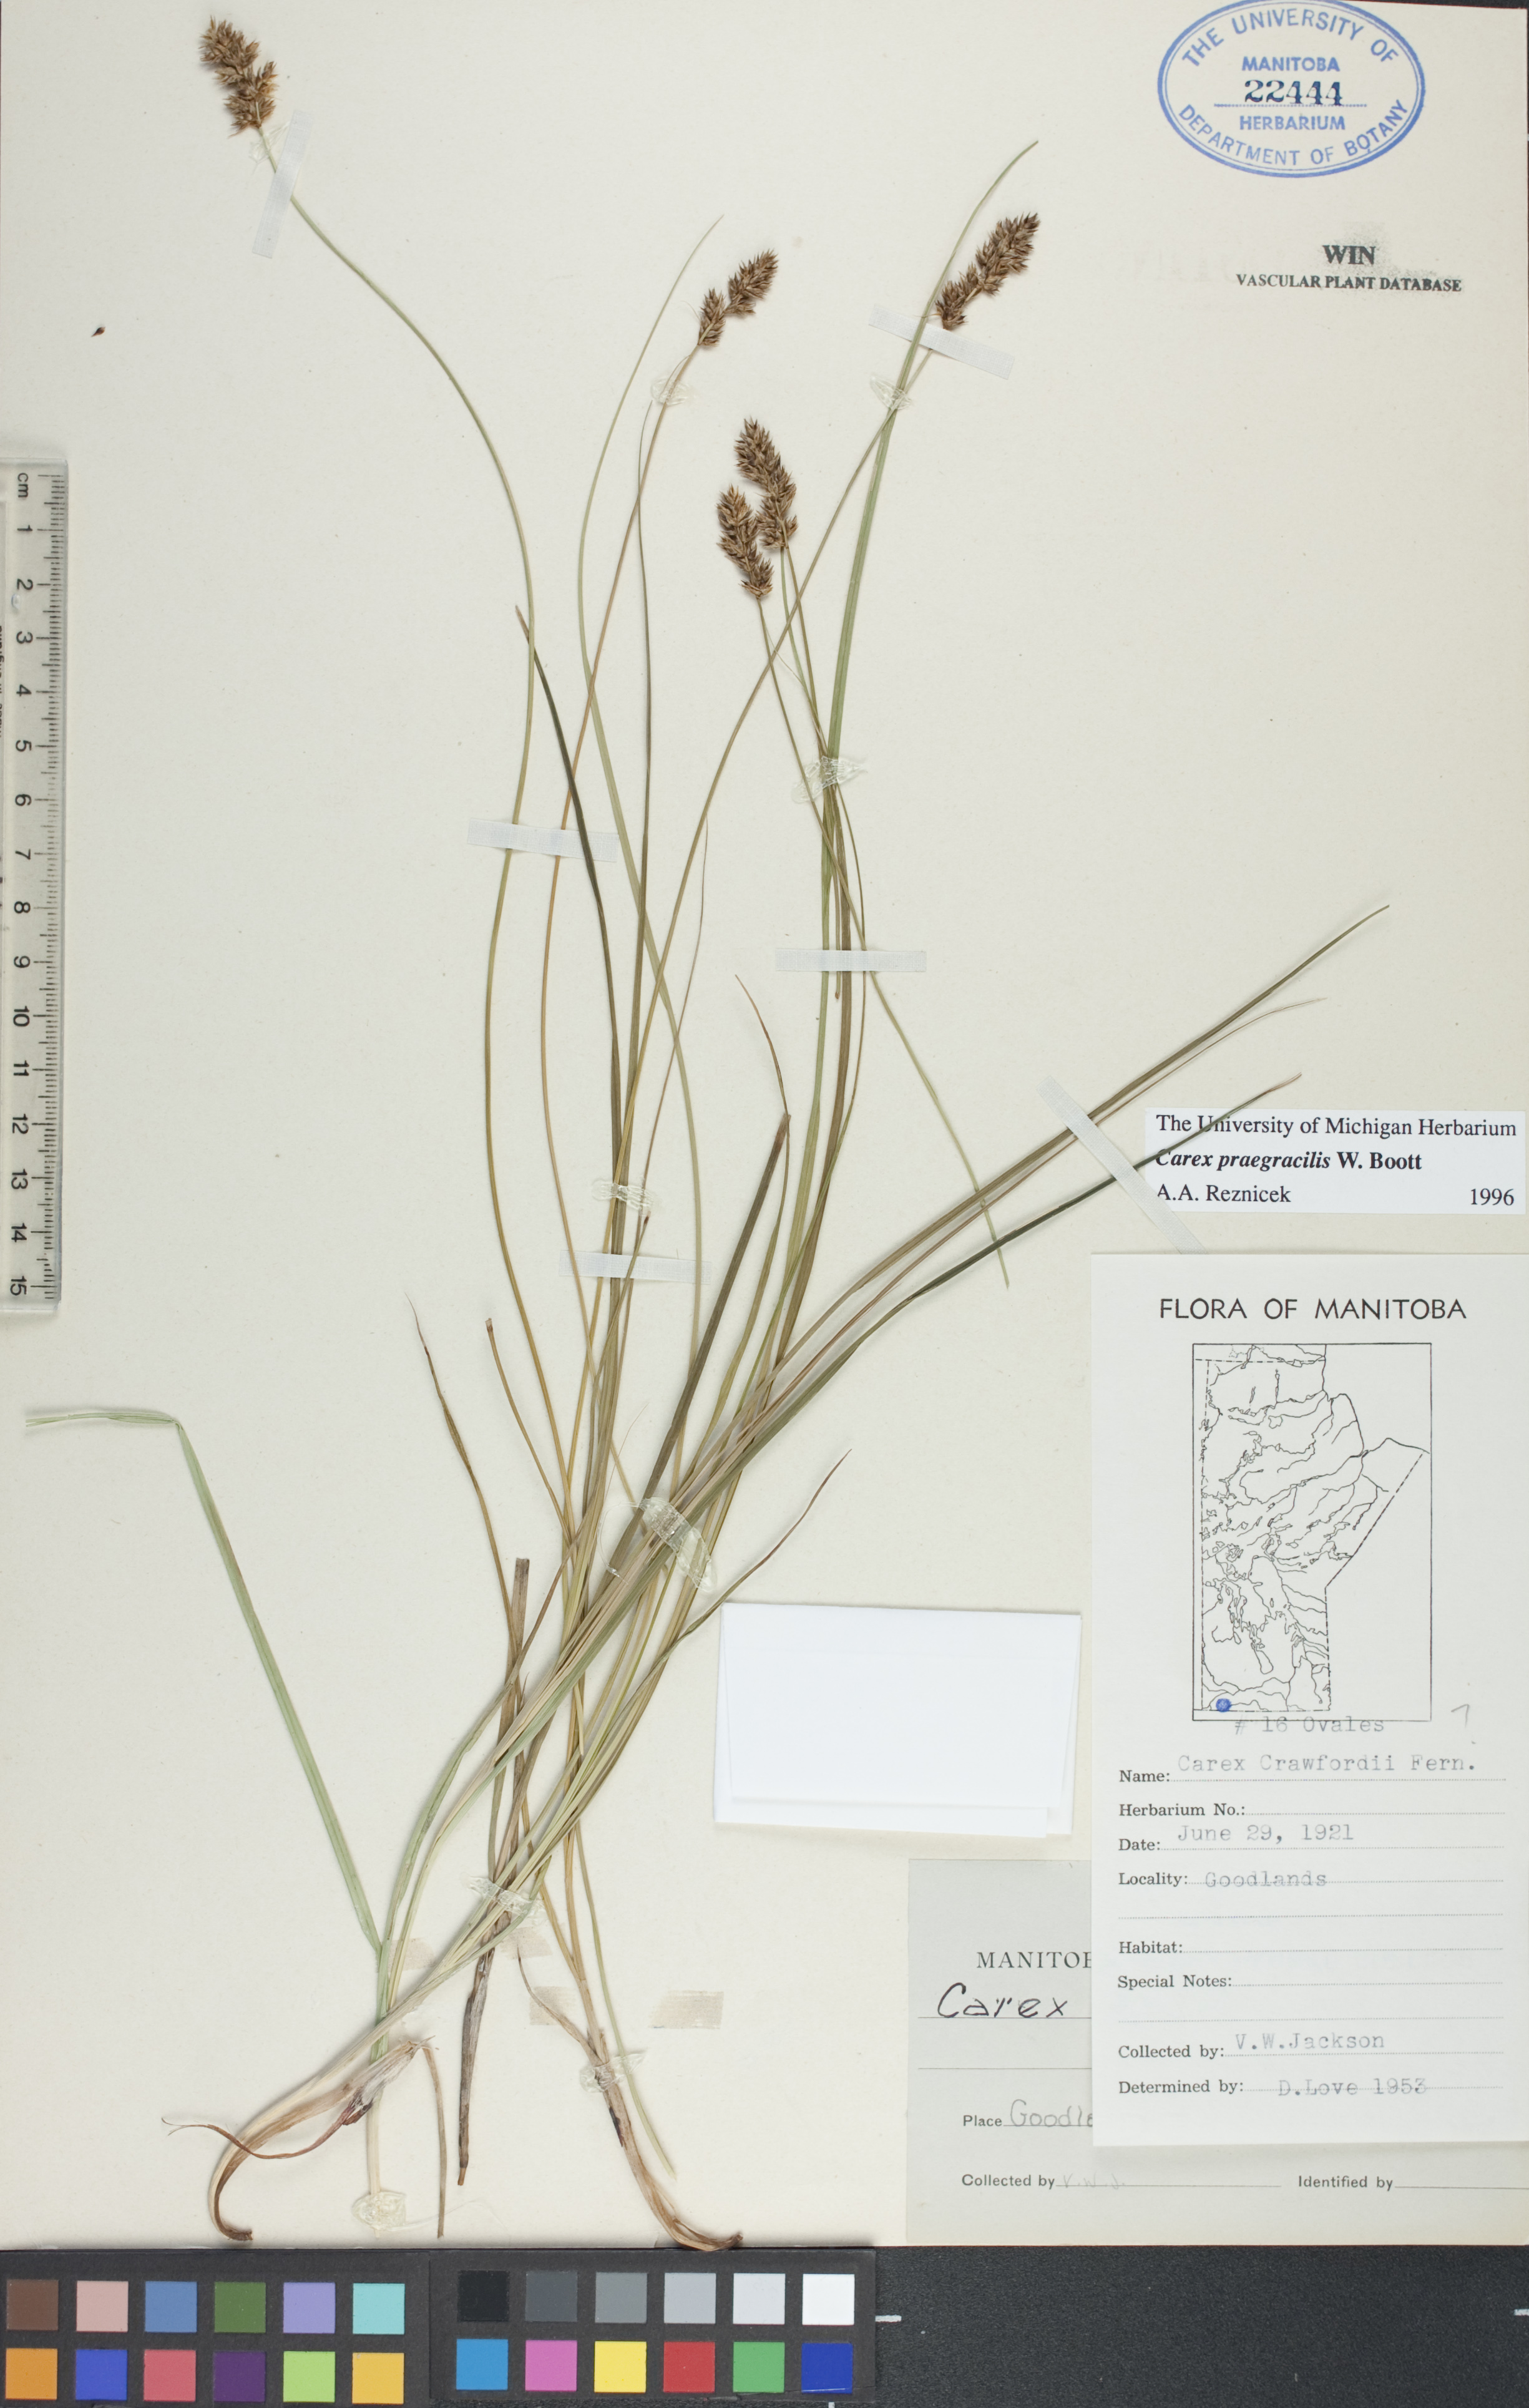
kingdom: Plantae
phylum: Tracheophyta
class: Liliopsida
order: Poales
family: Cyperaceae
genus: Carex
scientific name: Carex praegracilis
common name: Black creeper sedge
